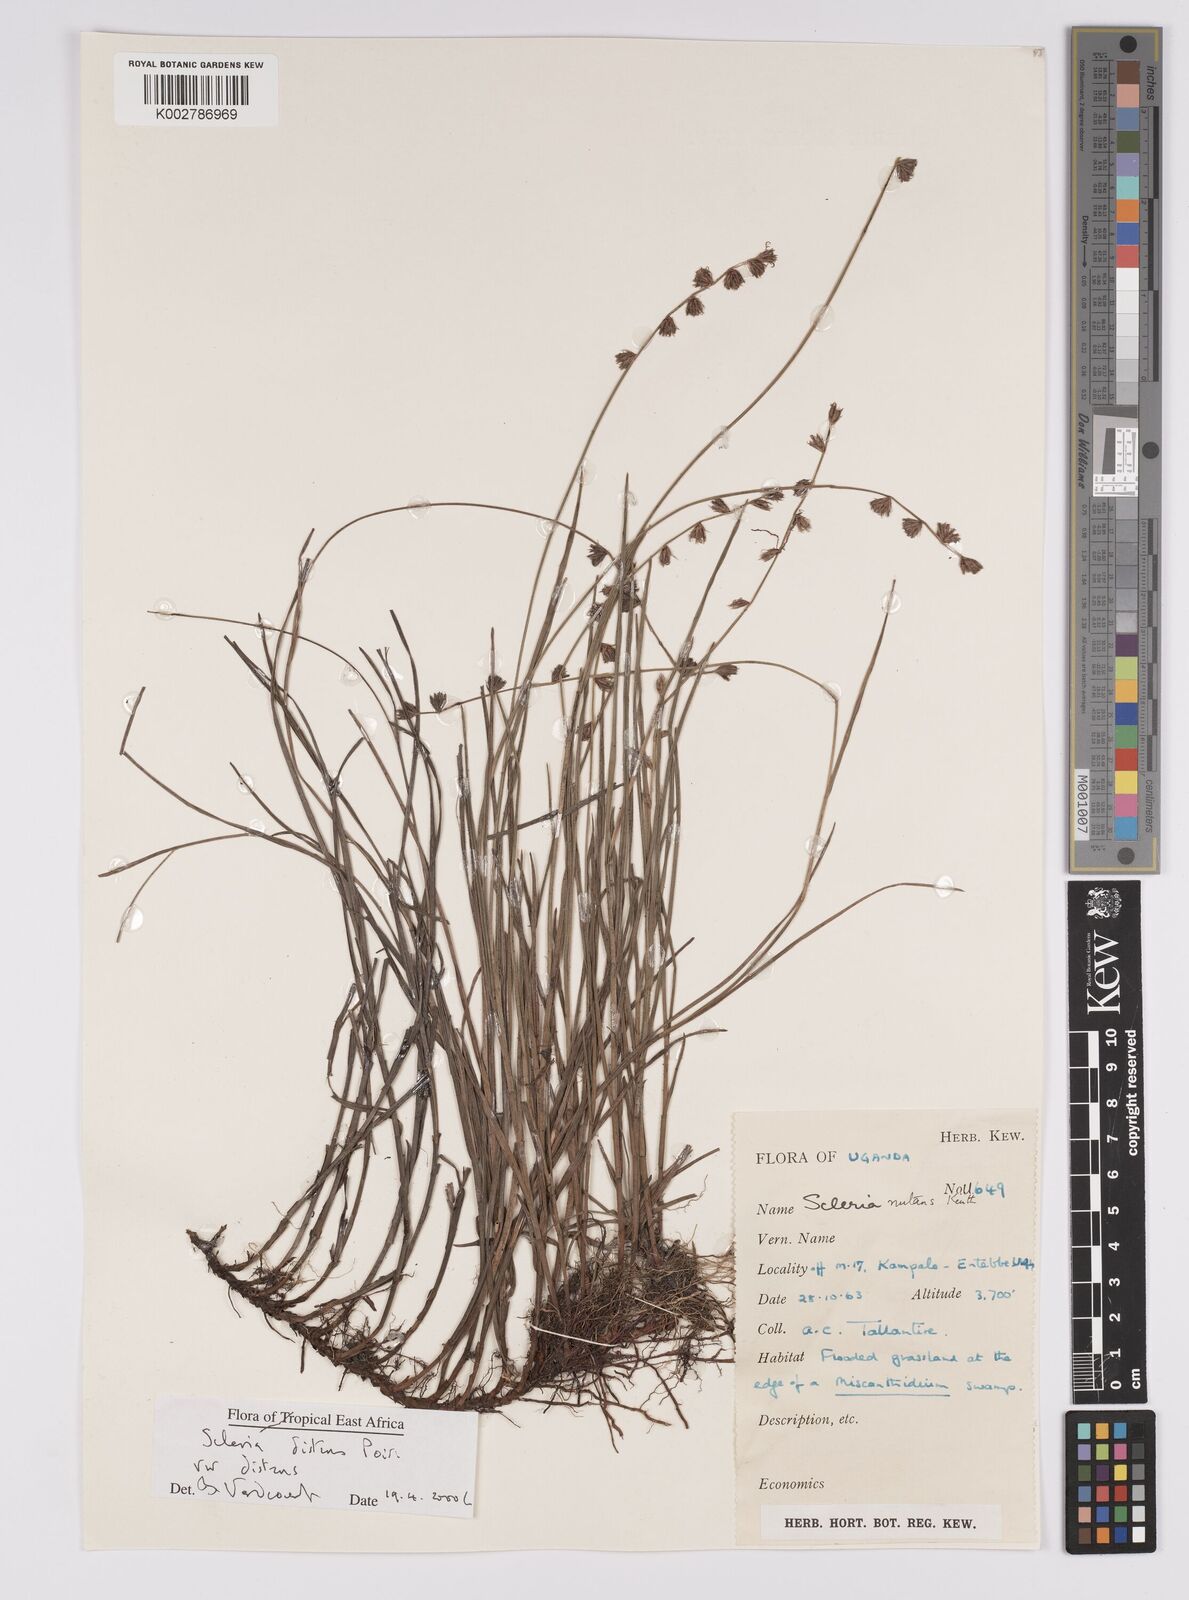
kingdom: Plantae
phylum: Tracheophyta
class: Liliopsida
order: Poales
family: Cyperaceae
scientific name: Cyperaceae
